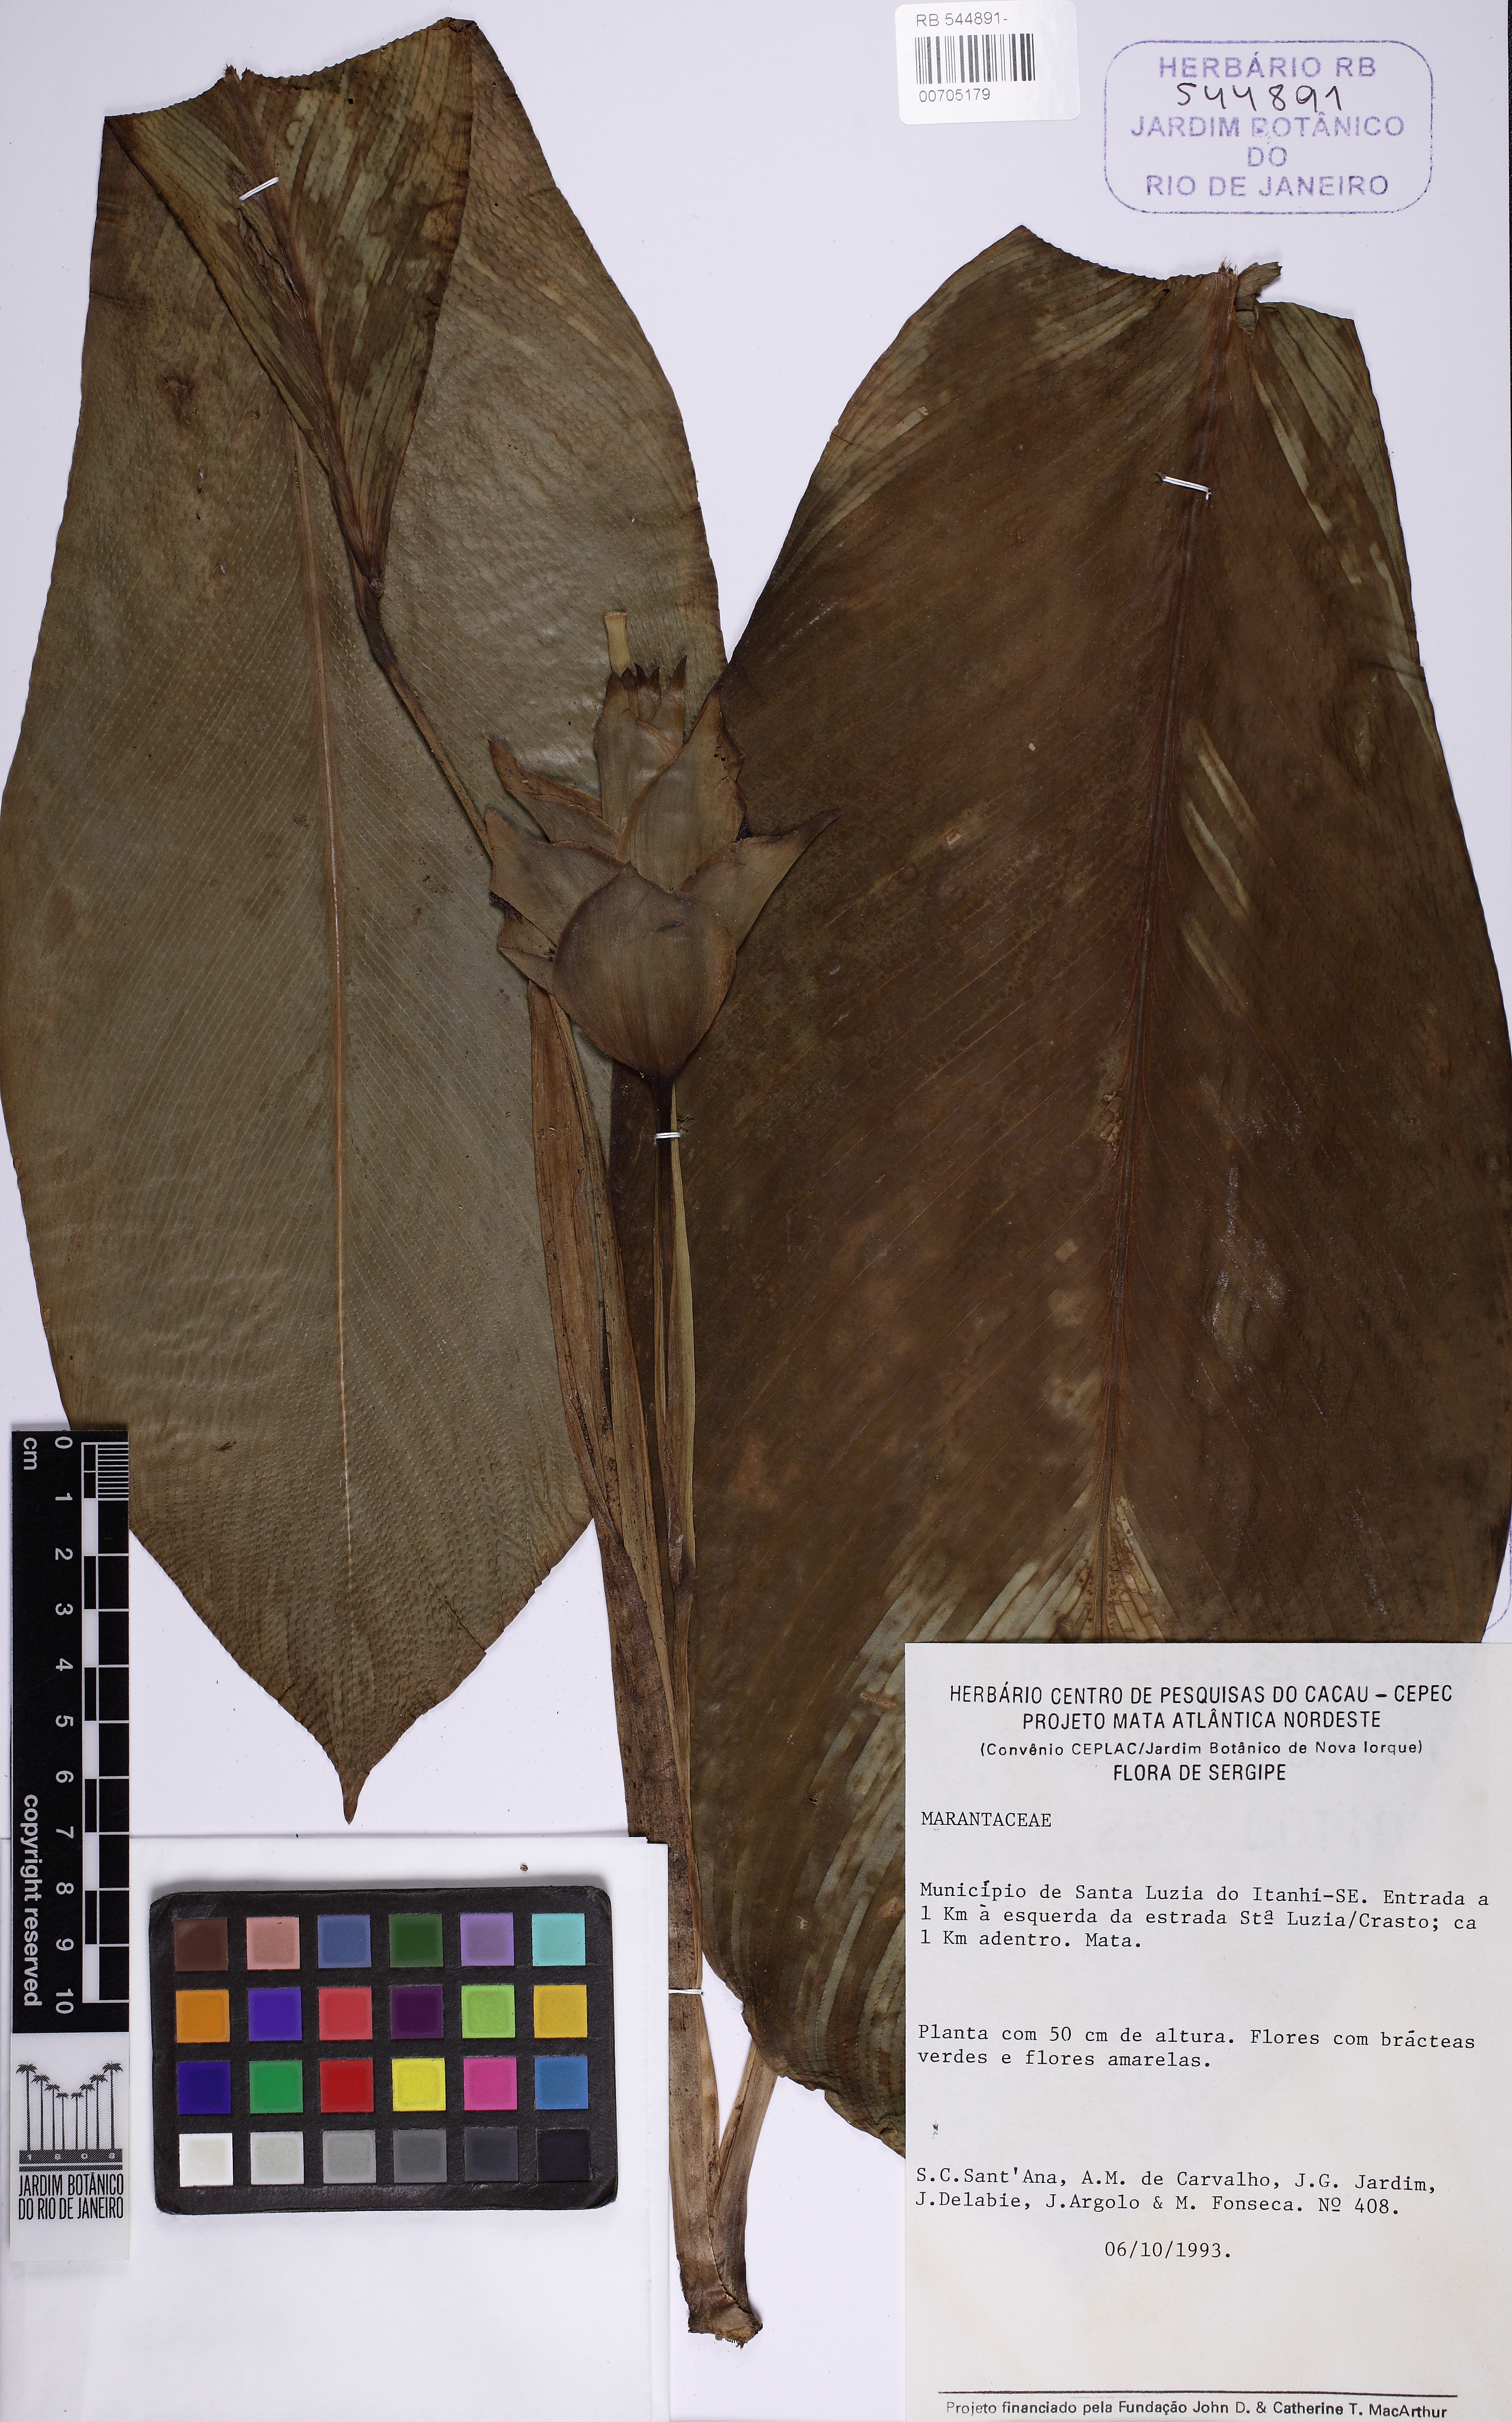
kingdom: Plantae
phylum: Tracheophyta
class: Liliopsida
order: Zingiberales
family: Marantaceae
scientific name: Marantaceae
